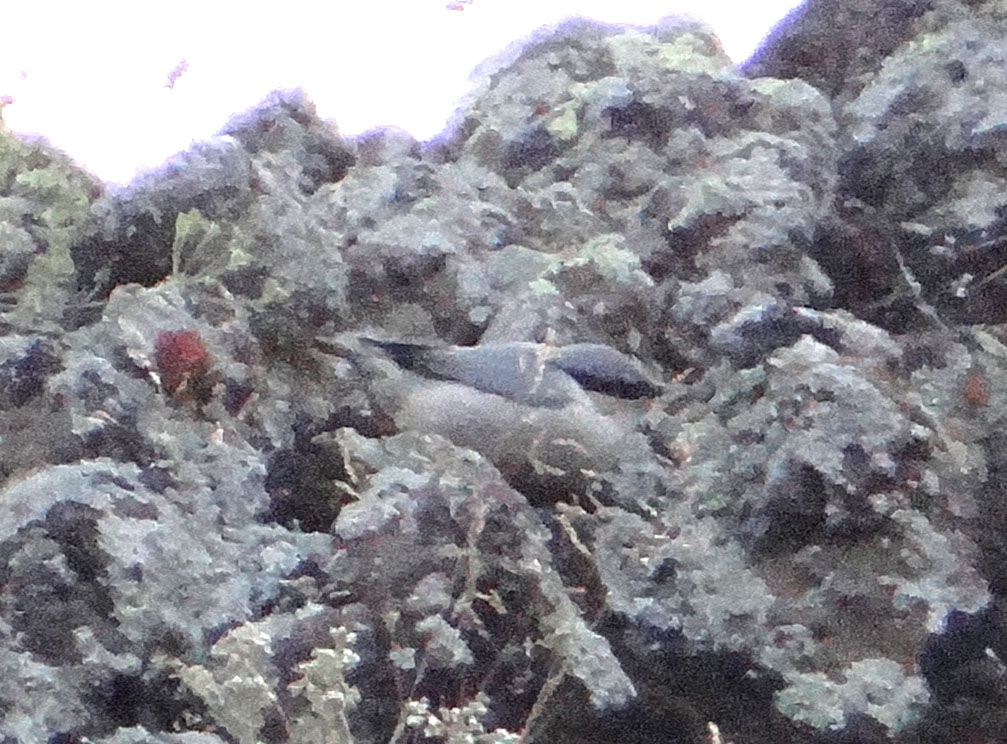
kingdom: Animalia
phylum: Chordata
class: Aves
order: Passeriformes
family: Sittidae
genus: Sitta
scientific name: Sitta neumayer
